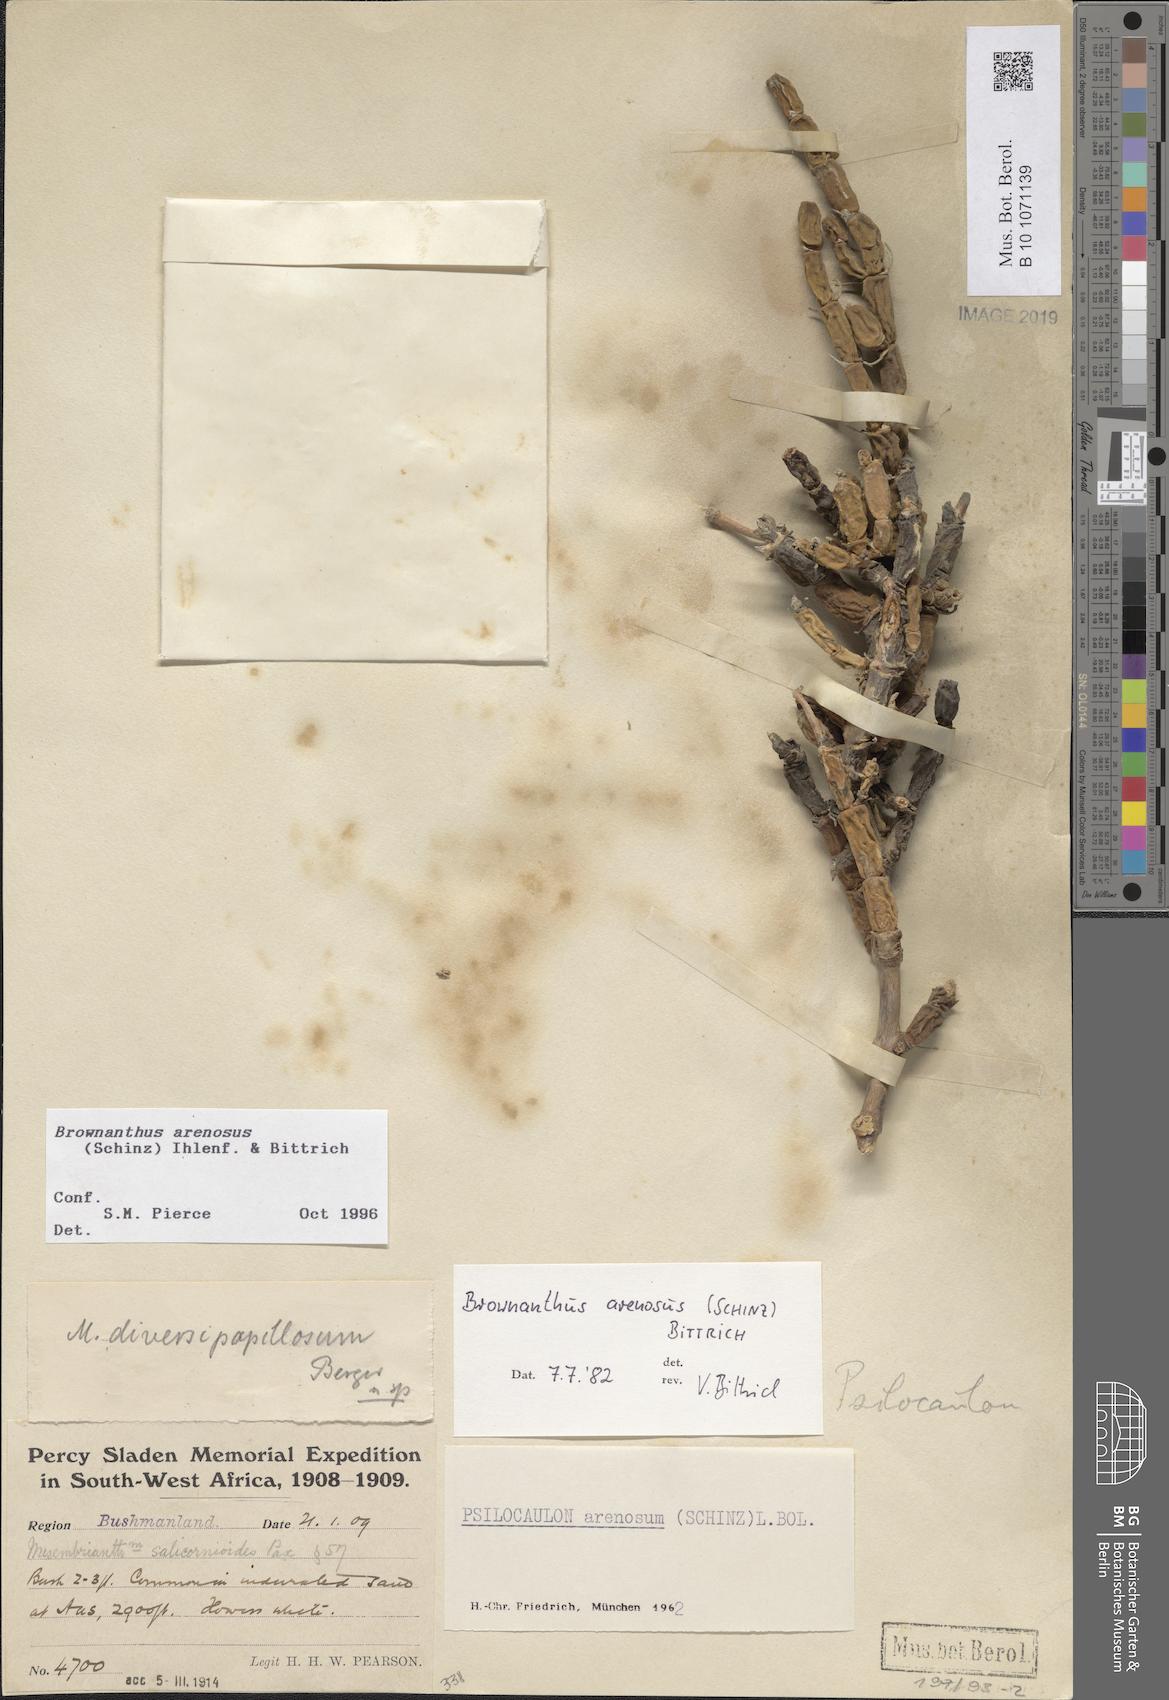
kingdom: Plantae
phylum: Tracheophyta
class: Magnoliopsida
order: Caryophyllales
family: Aizoaceae
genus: Mesembryanthemum
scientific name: Mesembryanthemum schlichtianum
